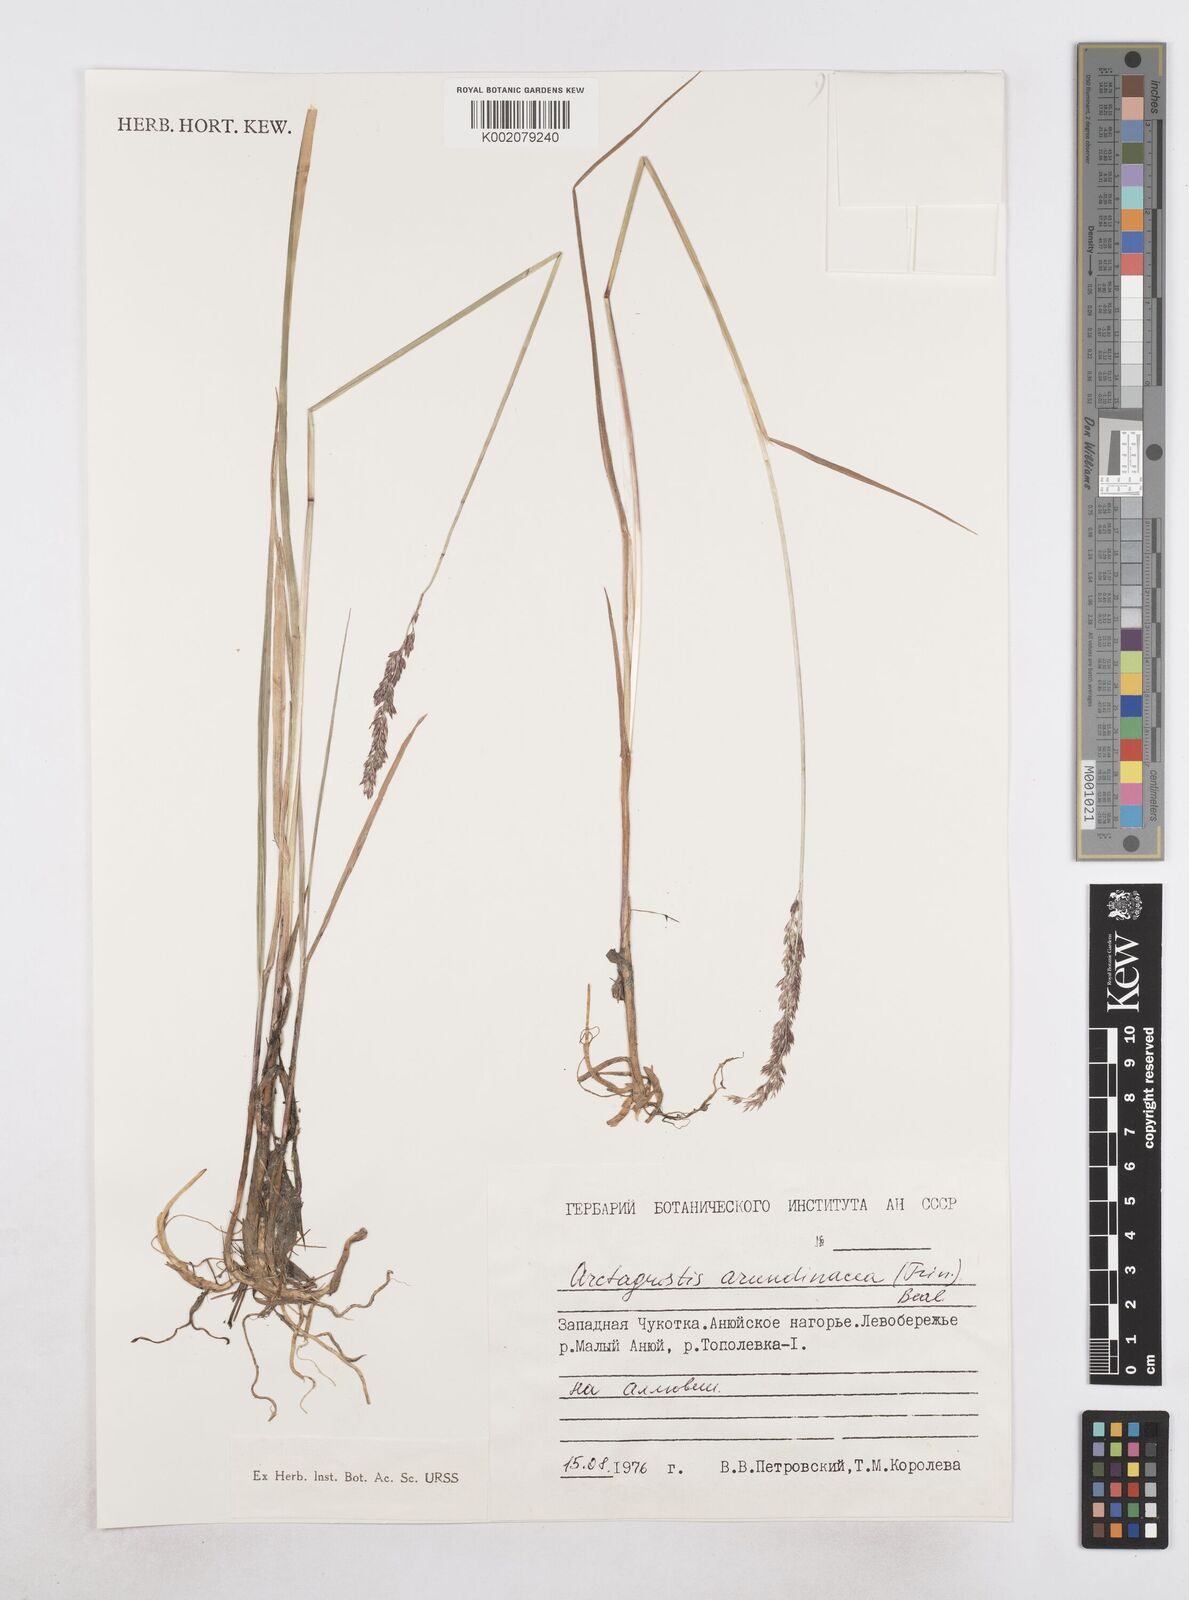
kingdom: Plantae
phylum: Tracheophyta
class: Liliopsida
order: Poales
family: Poaceae
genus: Arctagrostis
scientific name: Arctagrostis arundinacea
